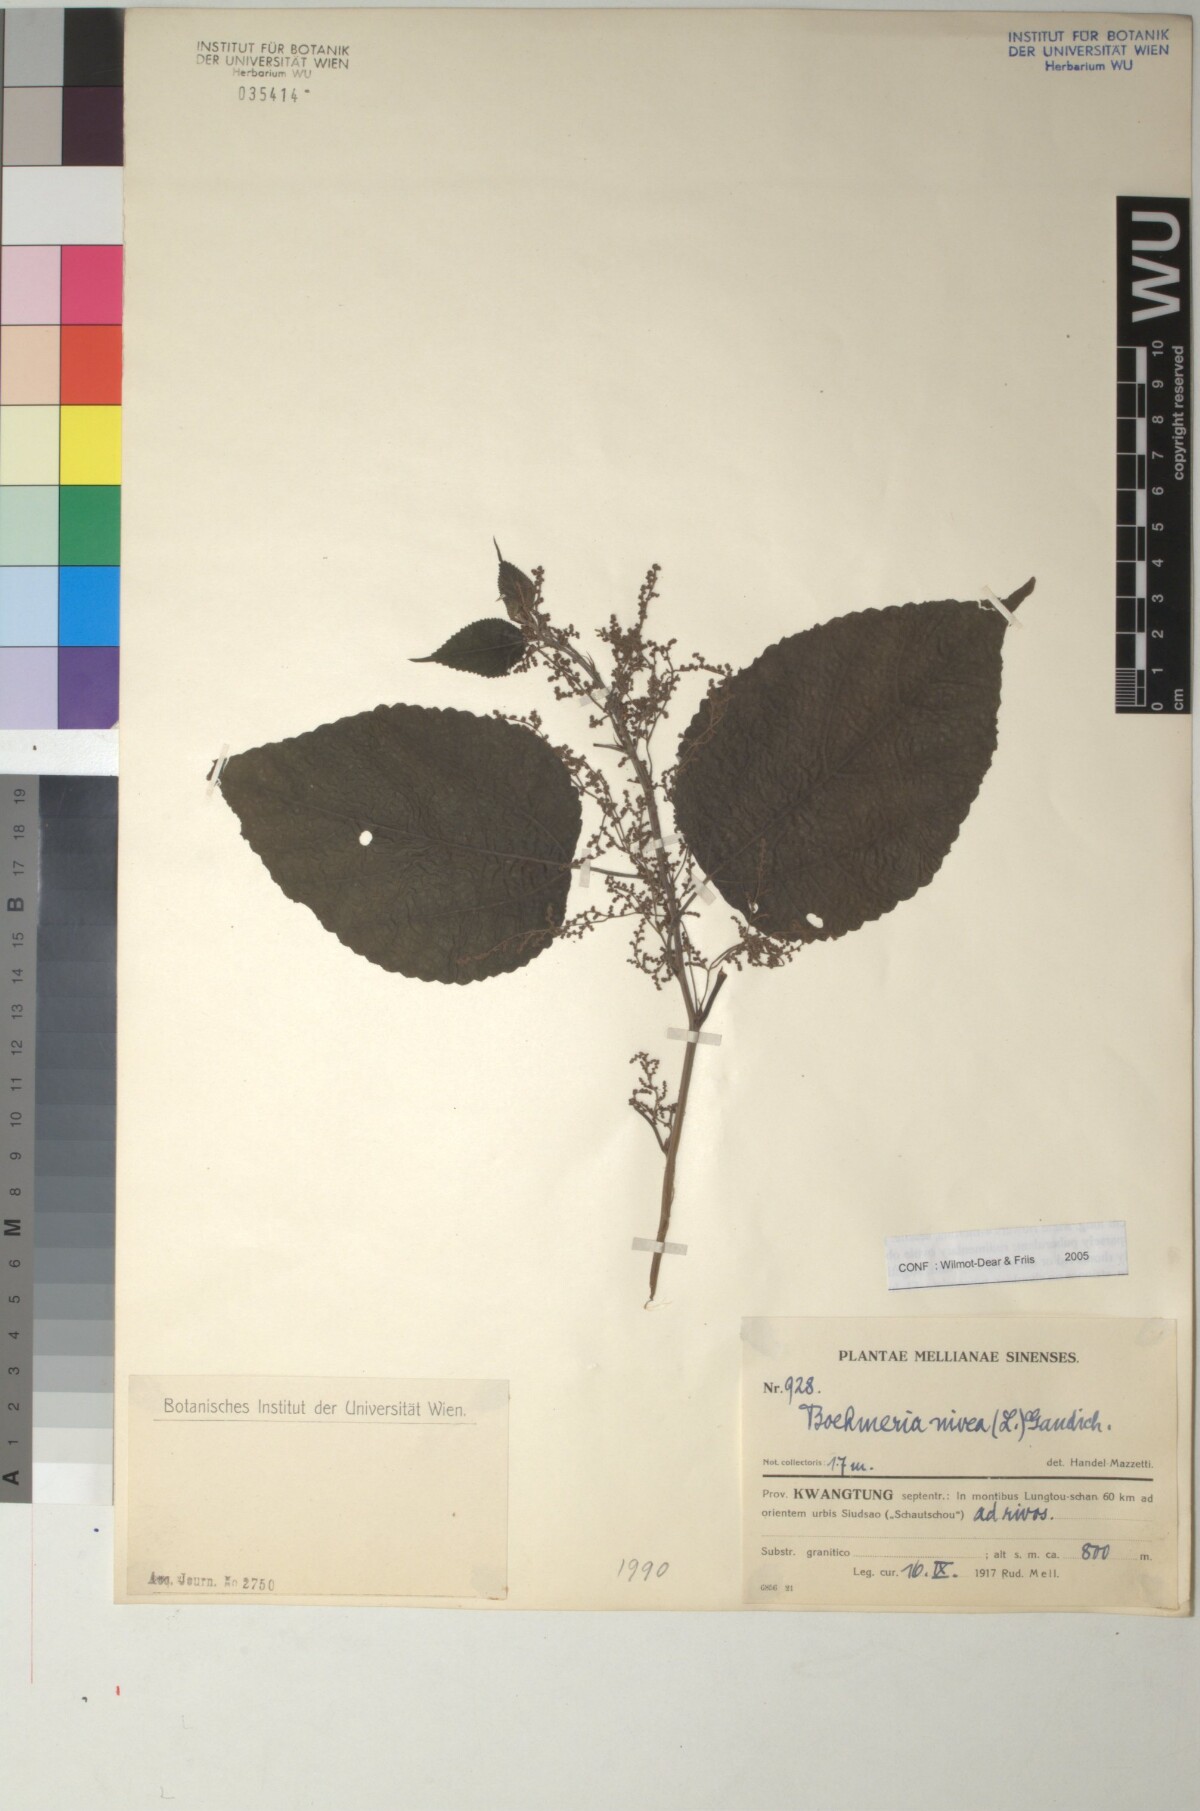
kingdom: Plantae
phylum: Tracheophyta
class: Magnoliopsida
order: Rosales
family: Urticaceae
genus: Boehmeria
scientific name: Boehmeria nivea
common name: Ramie chinese grass
